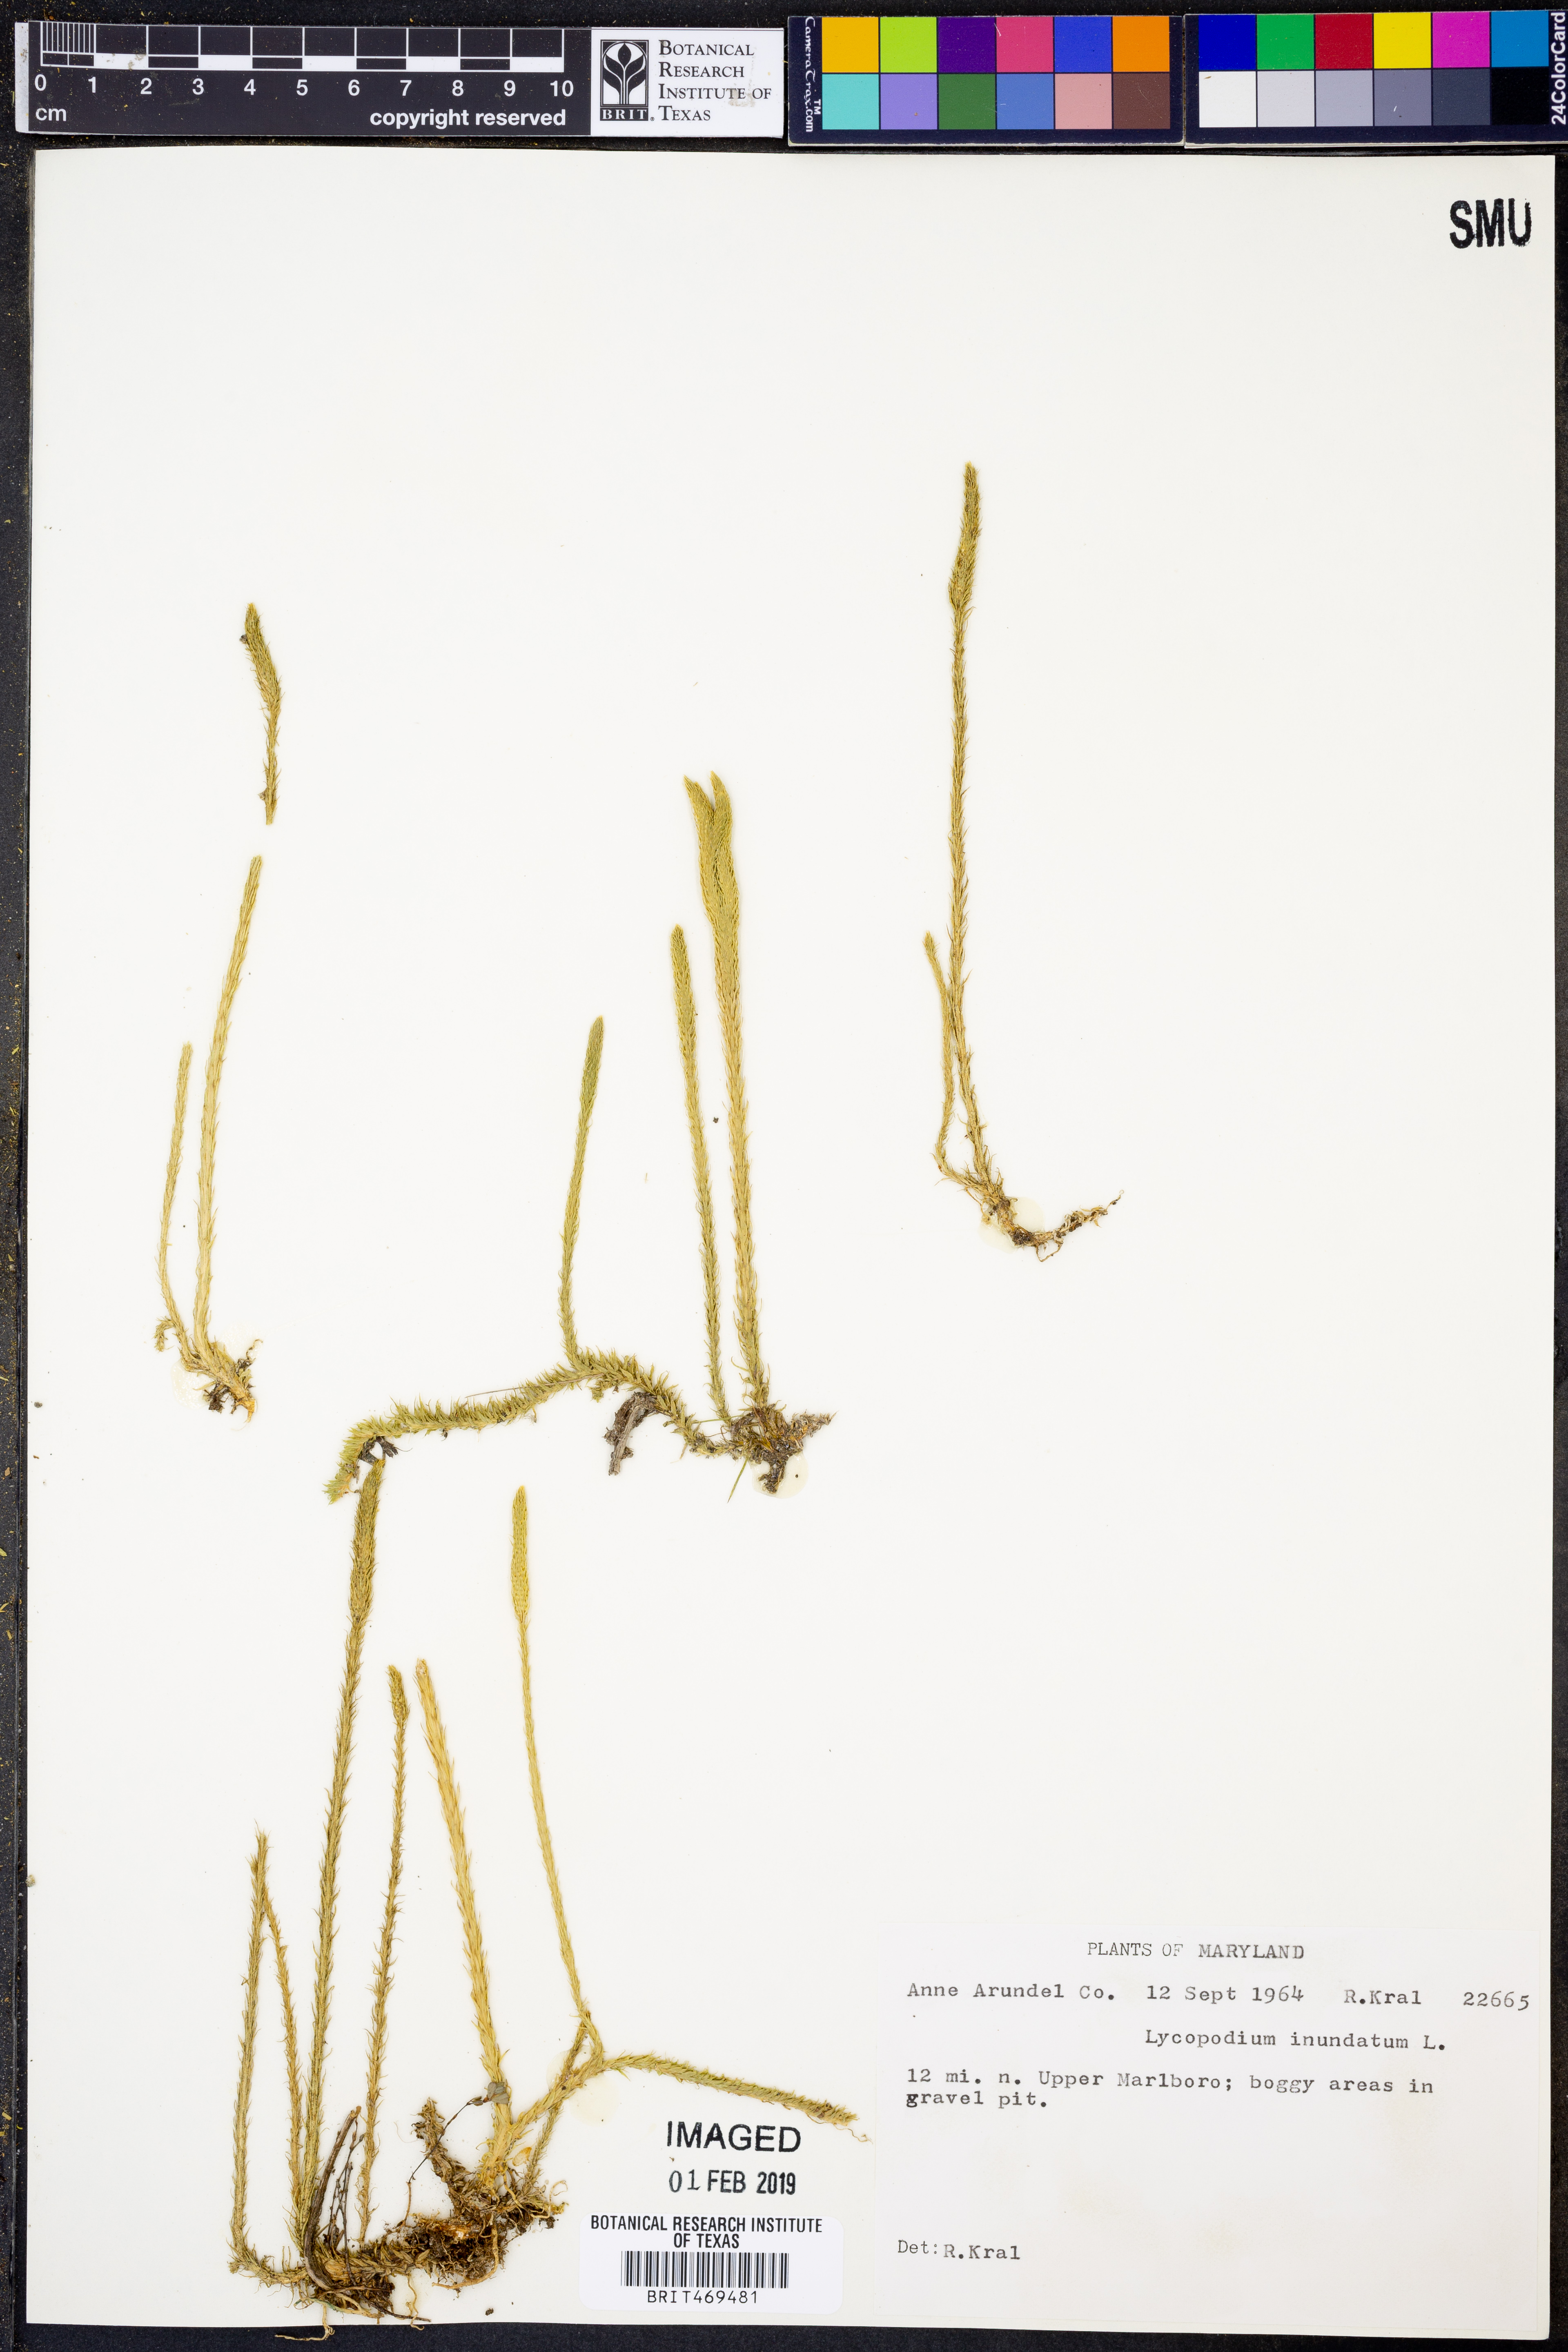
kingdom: Plantae
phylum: Tracheophyta
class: Lycopodiopsida
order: Lycopodiales
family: Lycopodiaceae
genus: Lycopodiella
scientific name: Lycopodiella inundata
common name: Marsh clubmoss
